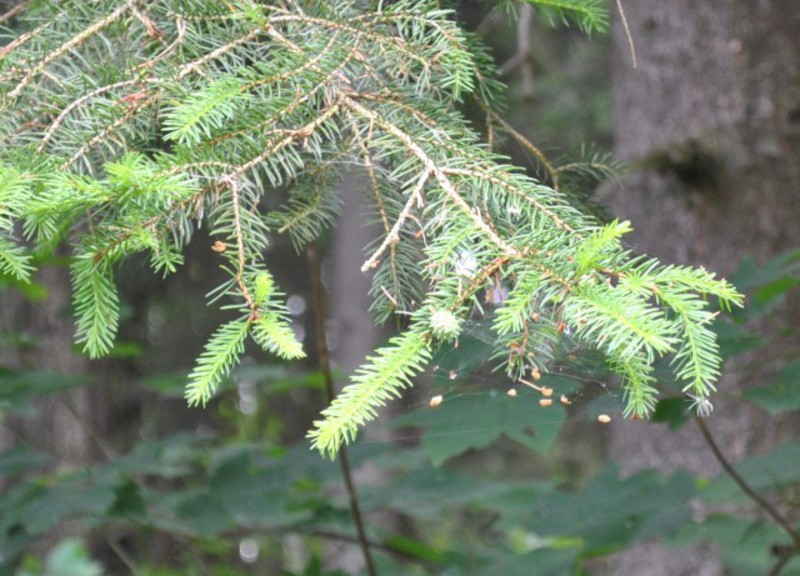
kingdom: Animalia
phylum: Arthropoda
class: Insecta
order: Hemiptera
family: Adelgidae
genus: Adelges
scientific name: Adelges viridis
